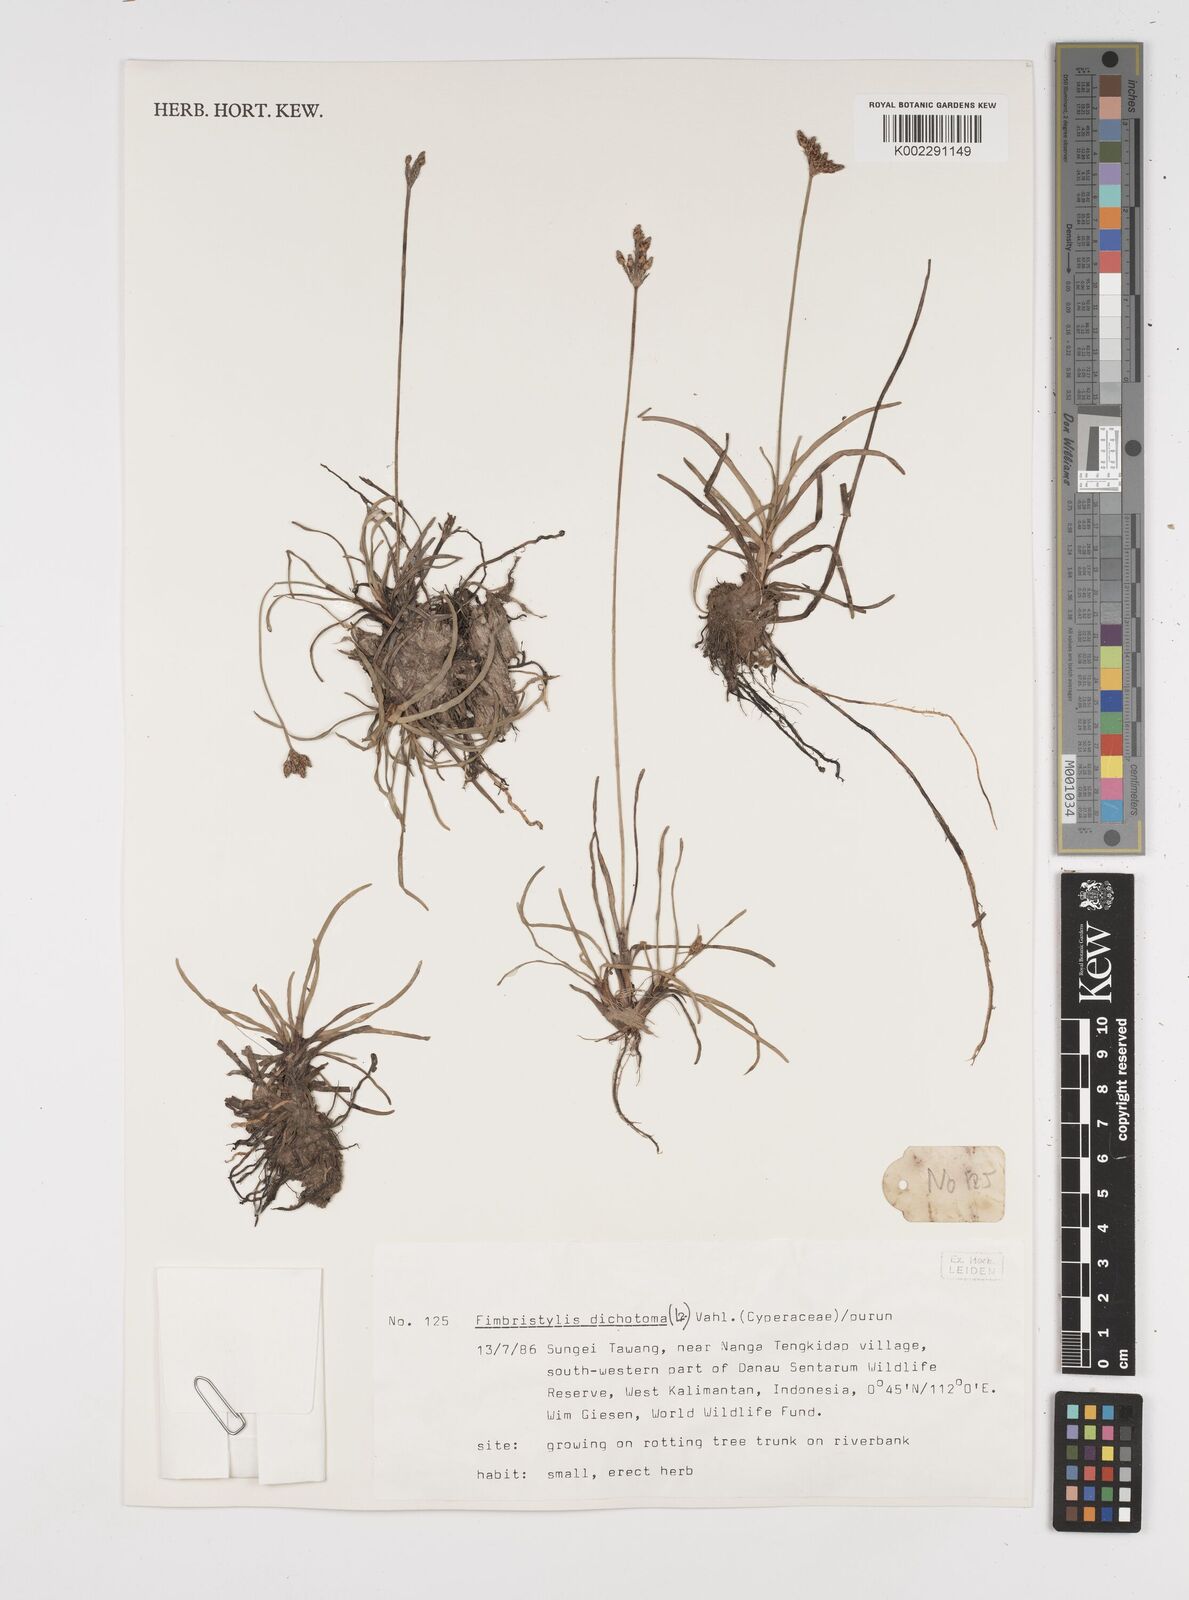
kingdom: Plantae
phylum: Tracheophyta
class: Liliopsida
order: Poales
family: Cyperaceae
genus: Fimbristylis
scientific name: Fimbristylis dichotoma
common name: Forked fimbry
